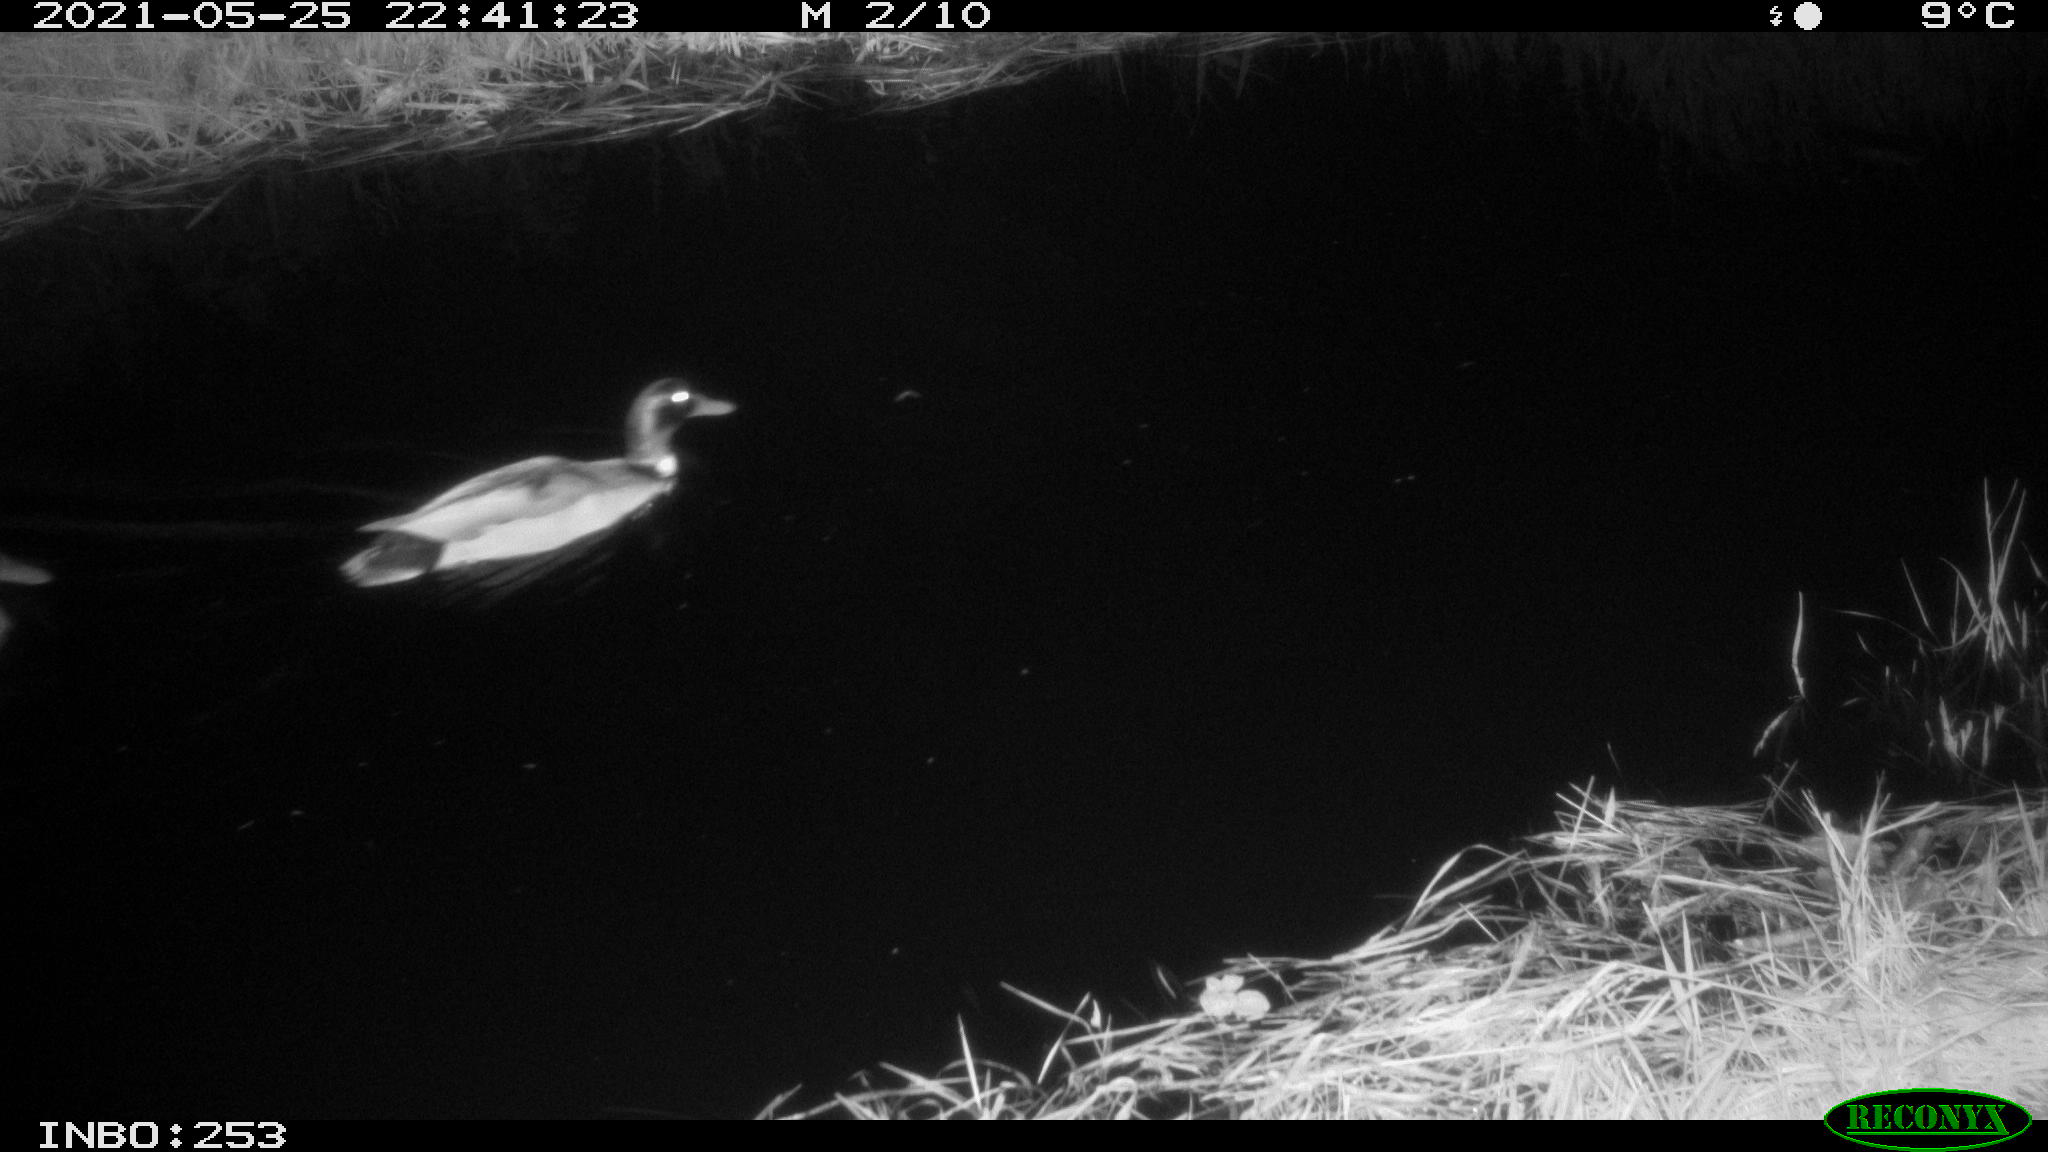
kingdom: Animalia
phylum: Chordata
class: Aves
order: Anseriformes
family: Anatidae
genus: Anas
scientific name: Anas
